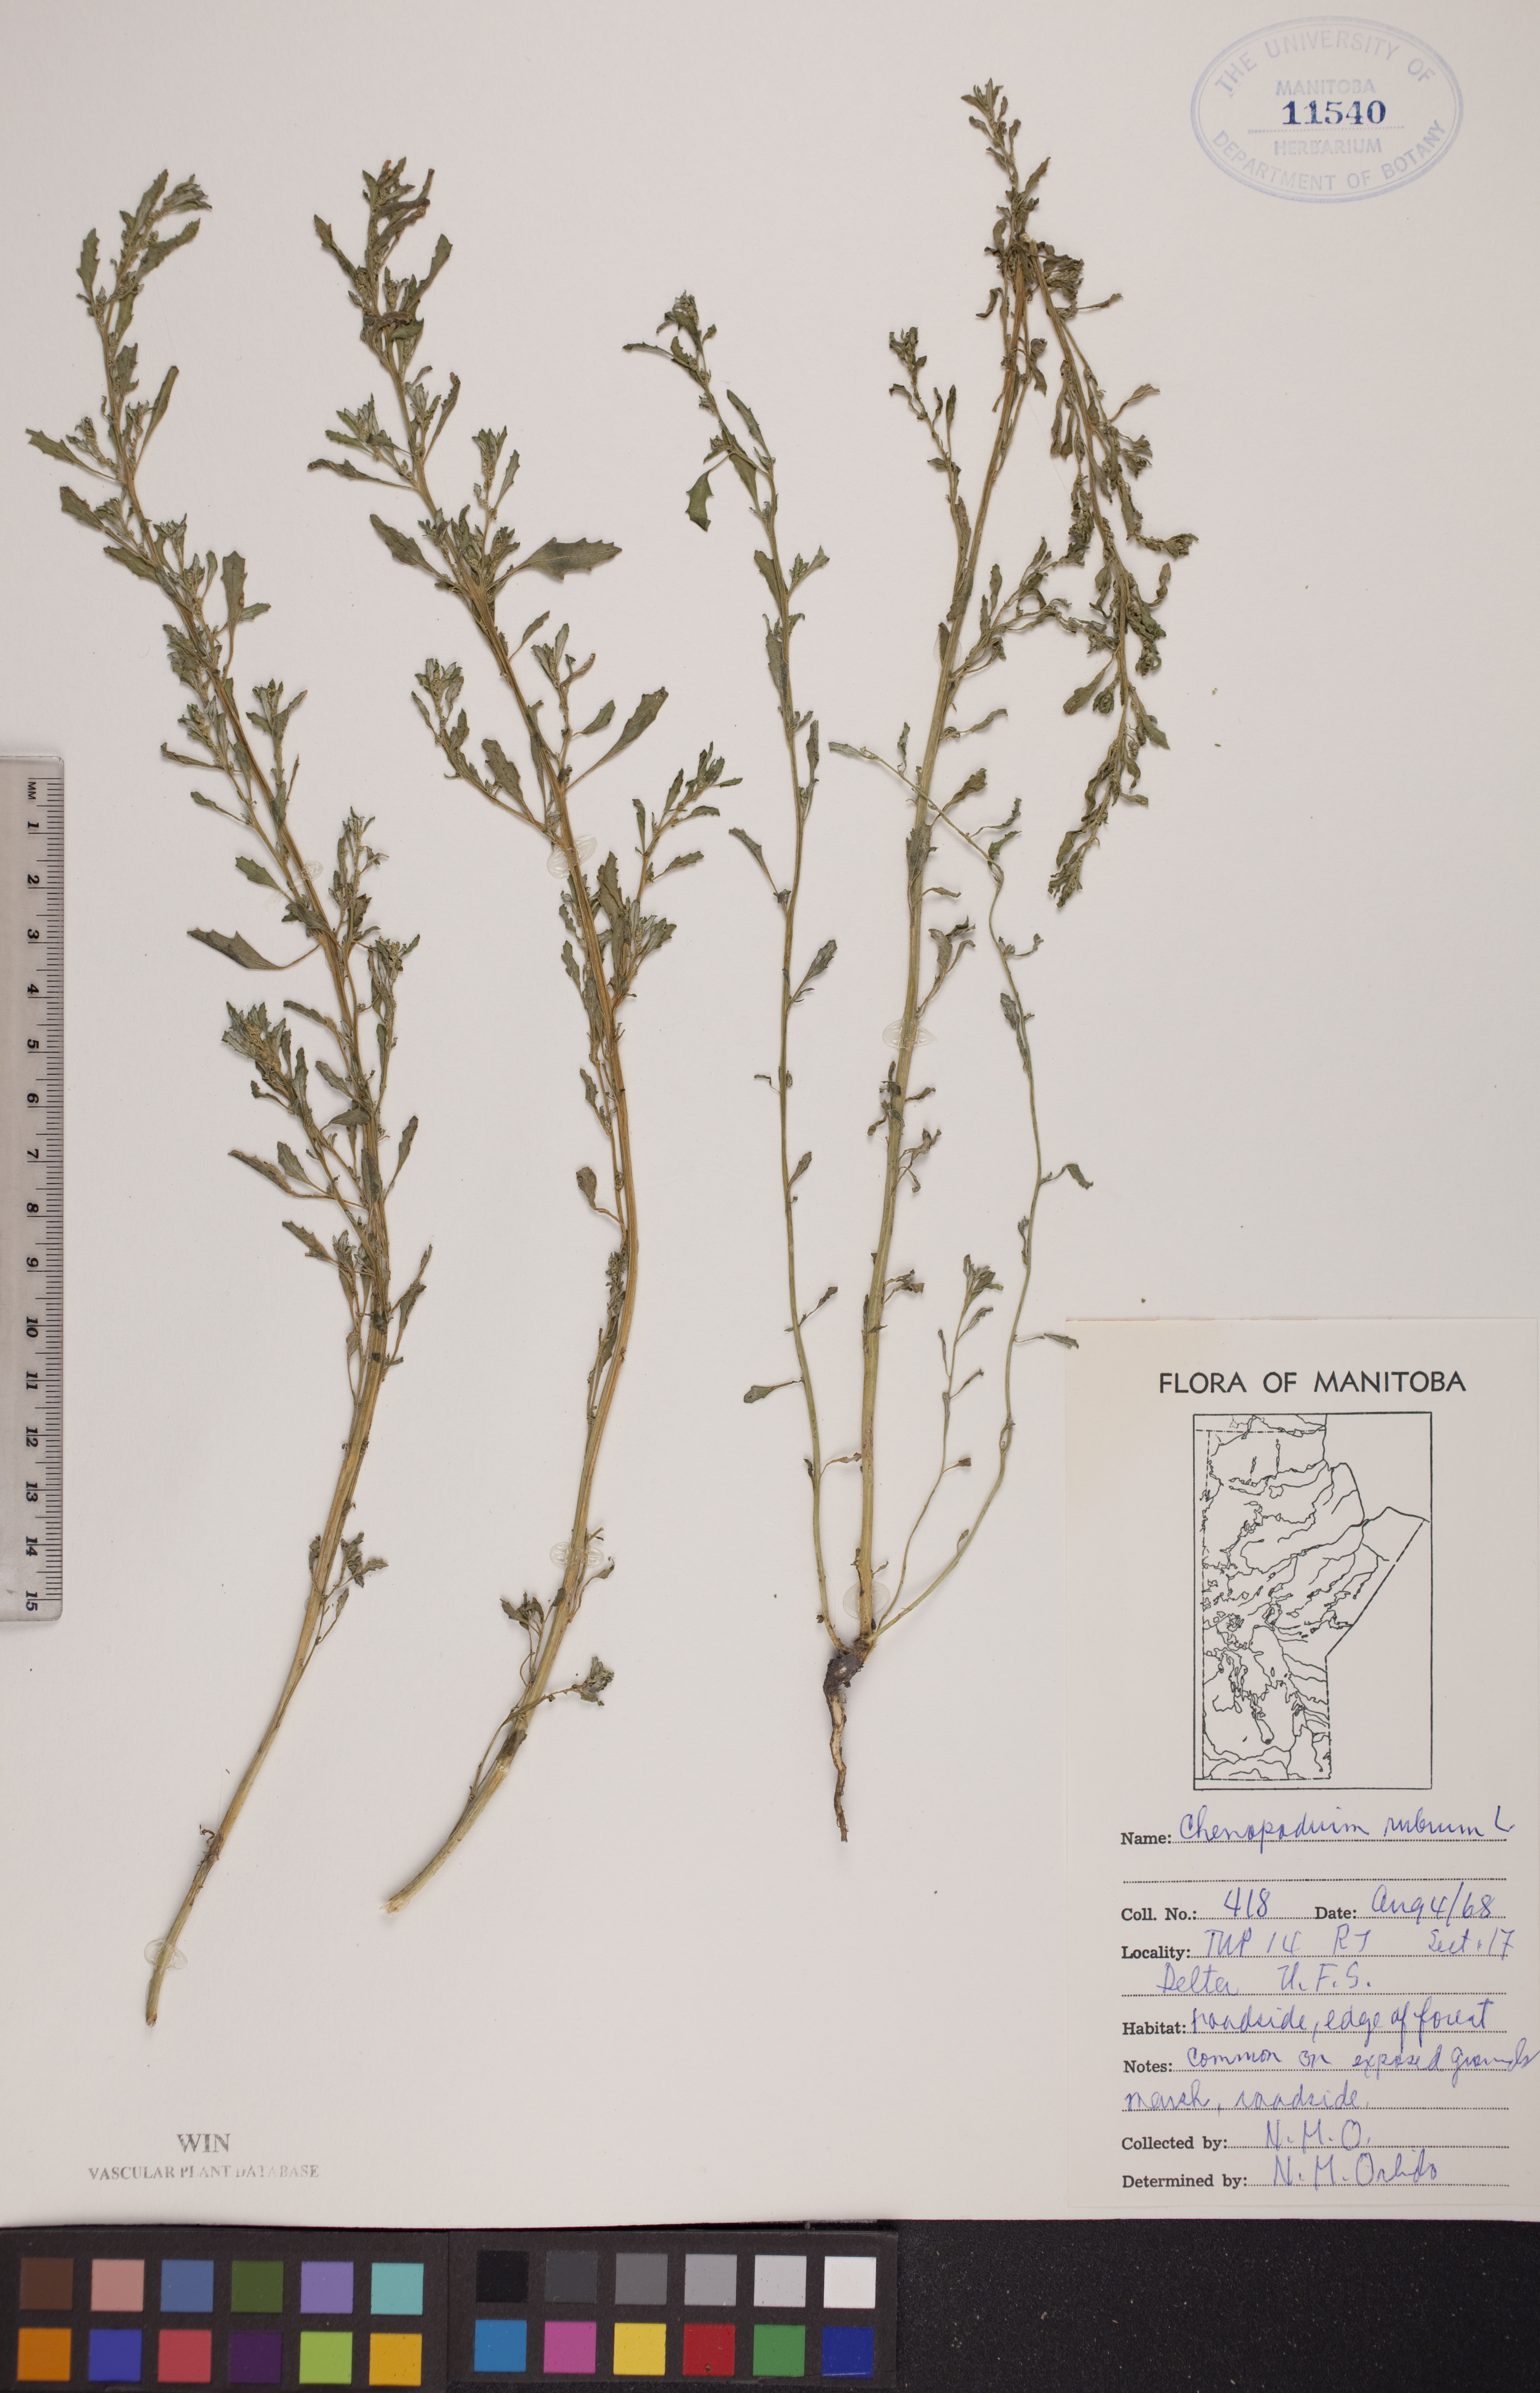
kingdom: Plantae
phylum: Tracheophyta
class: Magnoliopsida
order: Caryophyllales
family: Amaranthaceae
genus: Oxybasis
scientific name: Oxybasis rubra
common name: Red goosefoot
